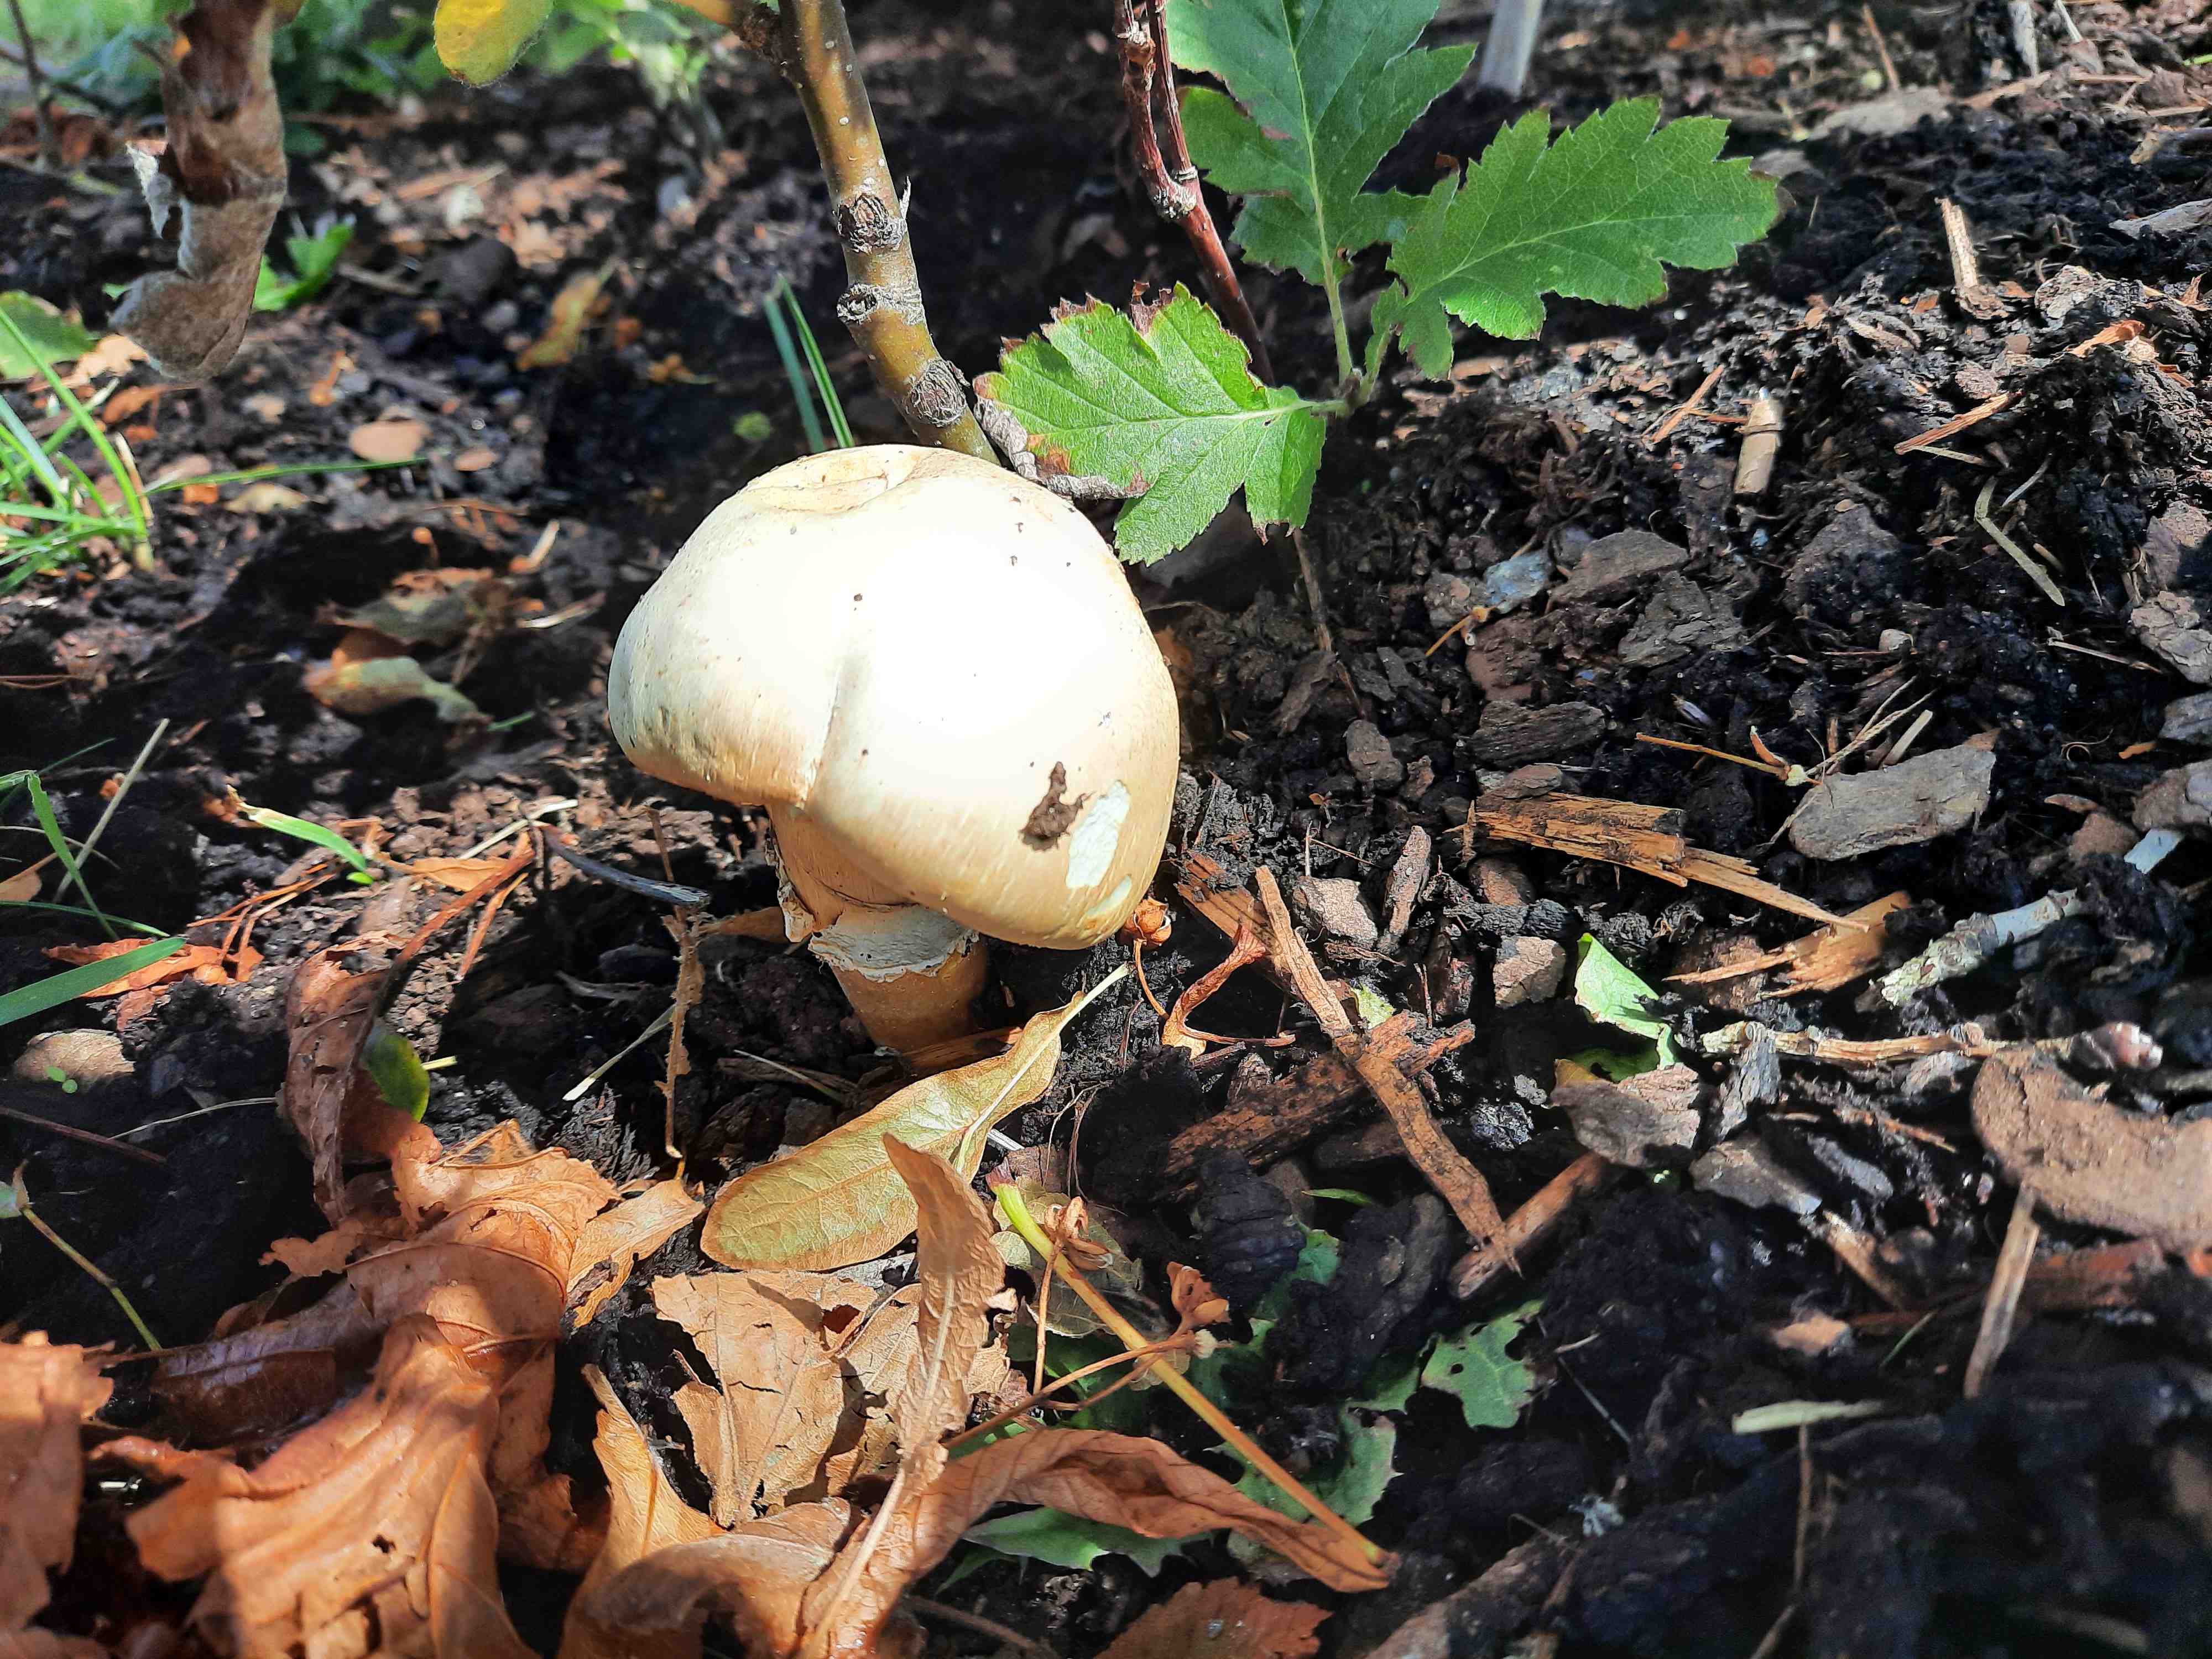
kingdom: Fungi
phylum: Basidiomycota
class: Agaricomycetes
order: Agaricales
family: Agaricaceae
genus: Agaricus
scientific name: Agaricus arvensis
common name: ager-champignon
